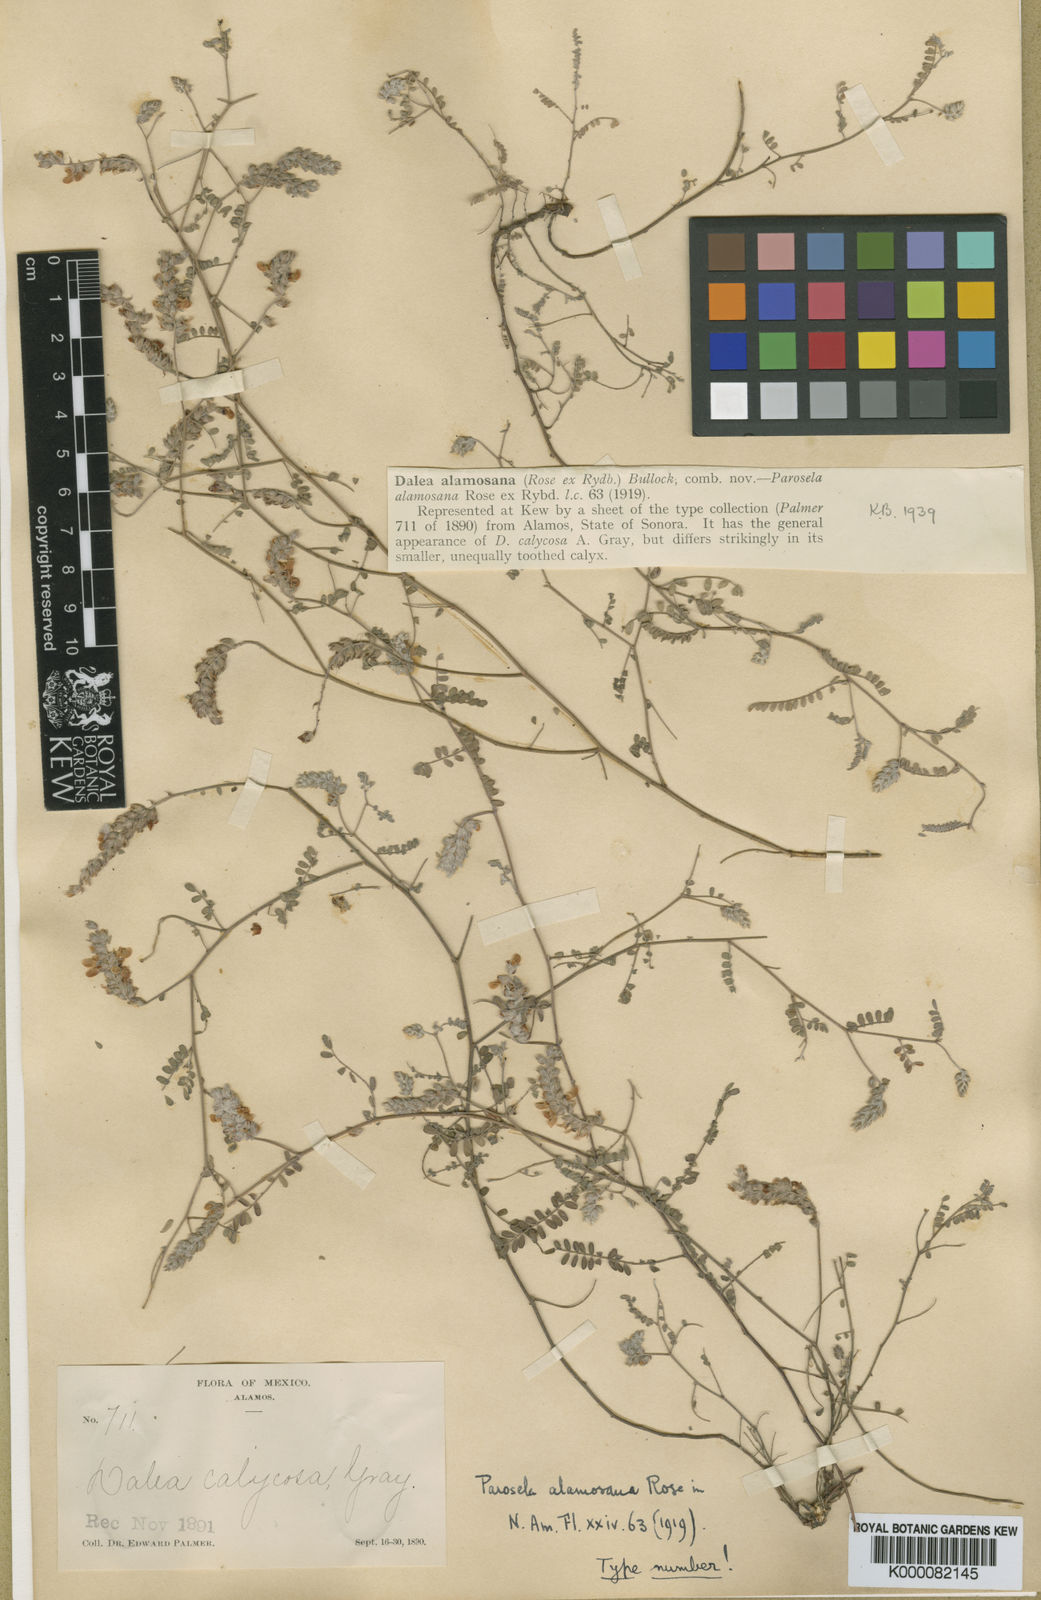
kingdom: Plantae
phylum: Tracheophyta
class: Magnoliopsida
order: Fabales
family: Fabaceae
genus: Marina
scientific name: Marina alamosana
